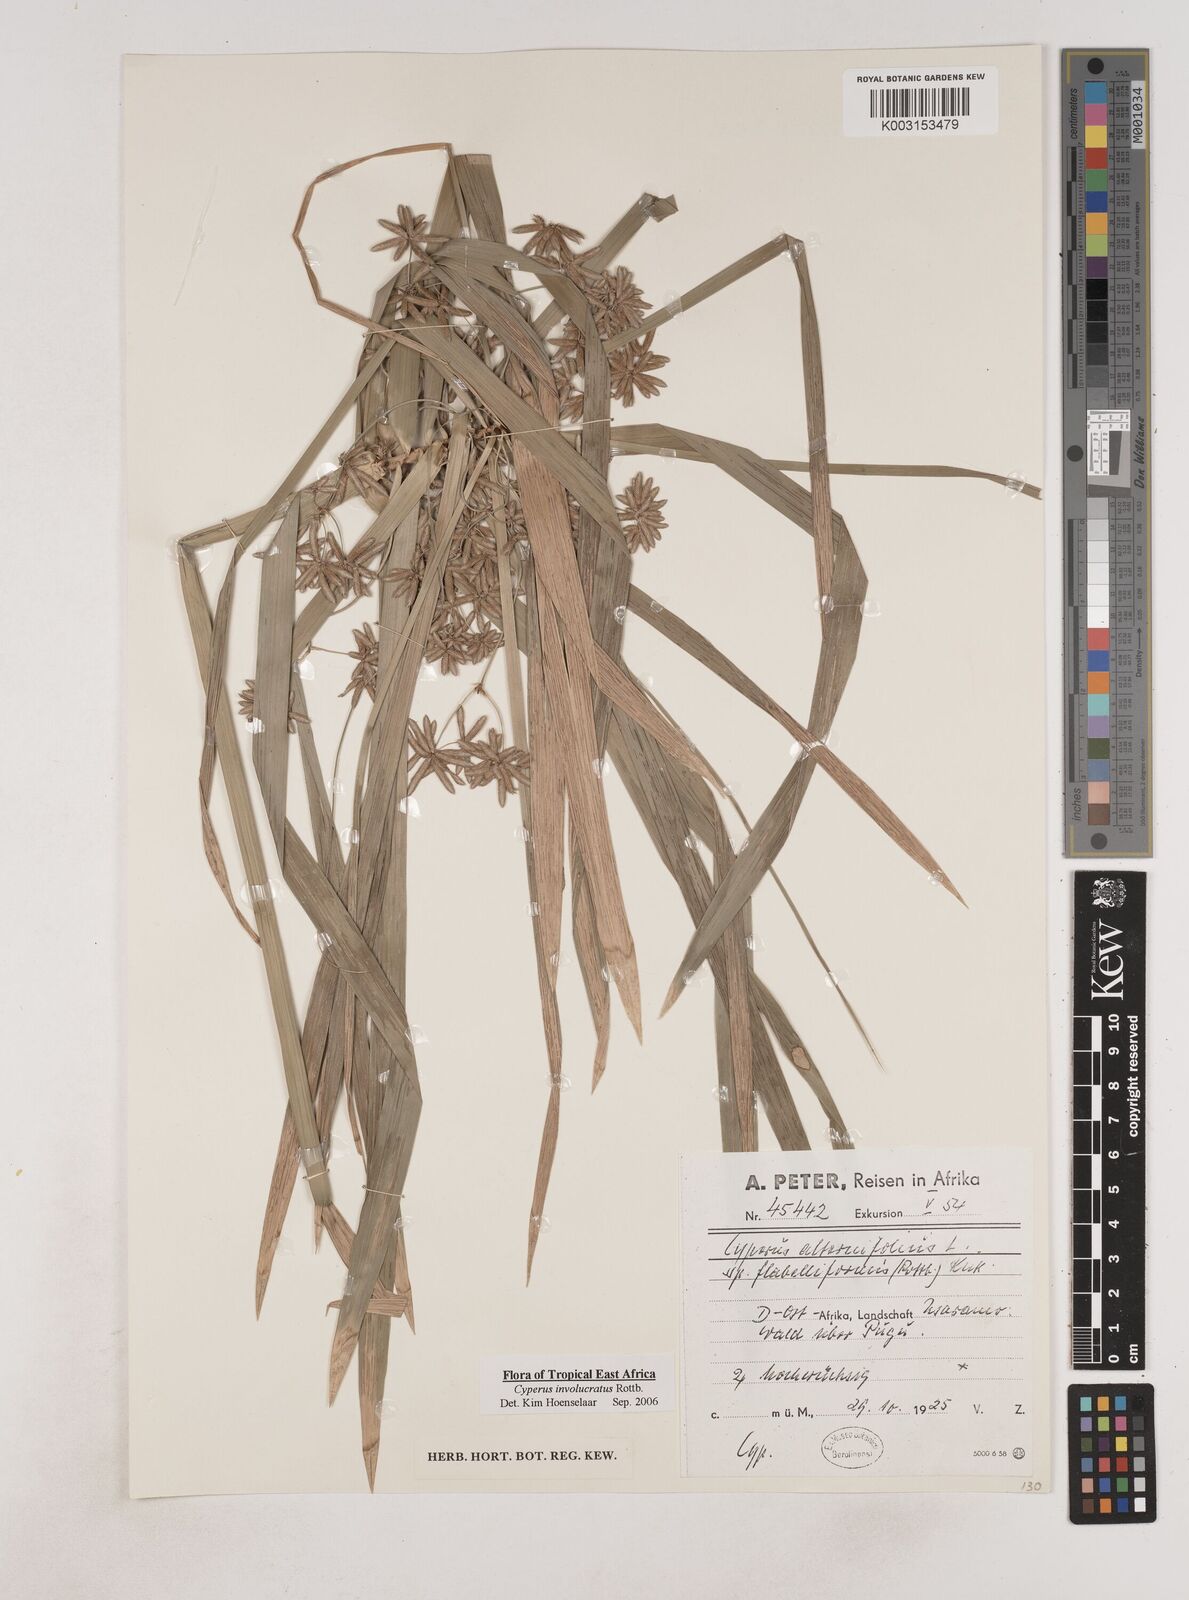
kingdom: Plantae
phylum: Tracheophyta
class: Liliopsida
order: Poales
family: Cyperaceae
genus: Cyperus
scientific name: Cyperus alternifolius
